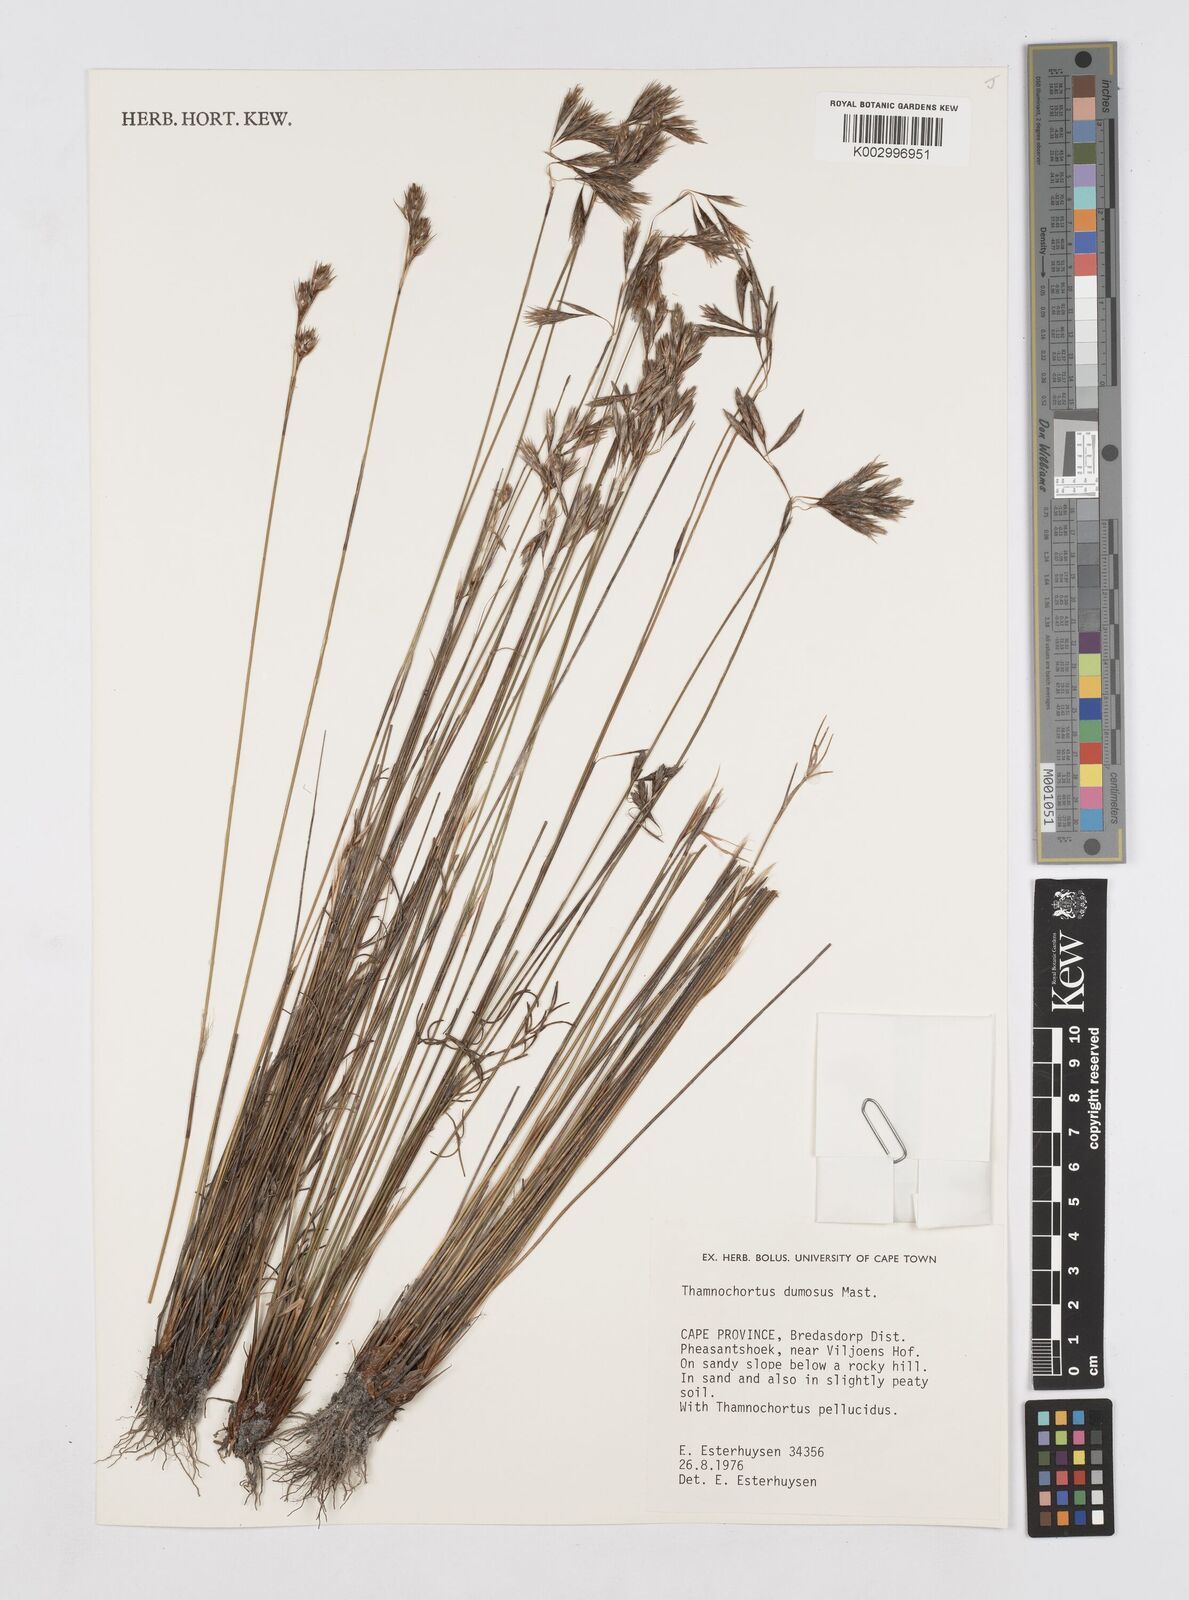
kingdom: Plantae
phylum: Tracheophyta
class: Liliopsida
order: Poales
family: Restionaceae
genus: Thamnochortus
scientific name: Thamnochortus dumosus
